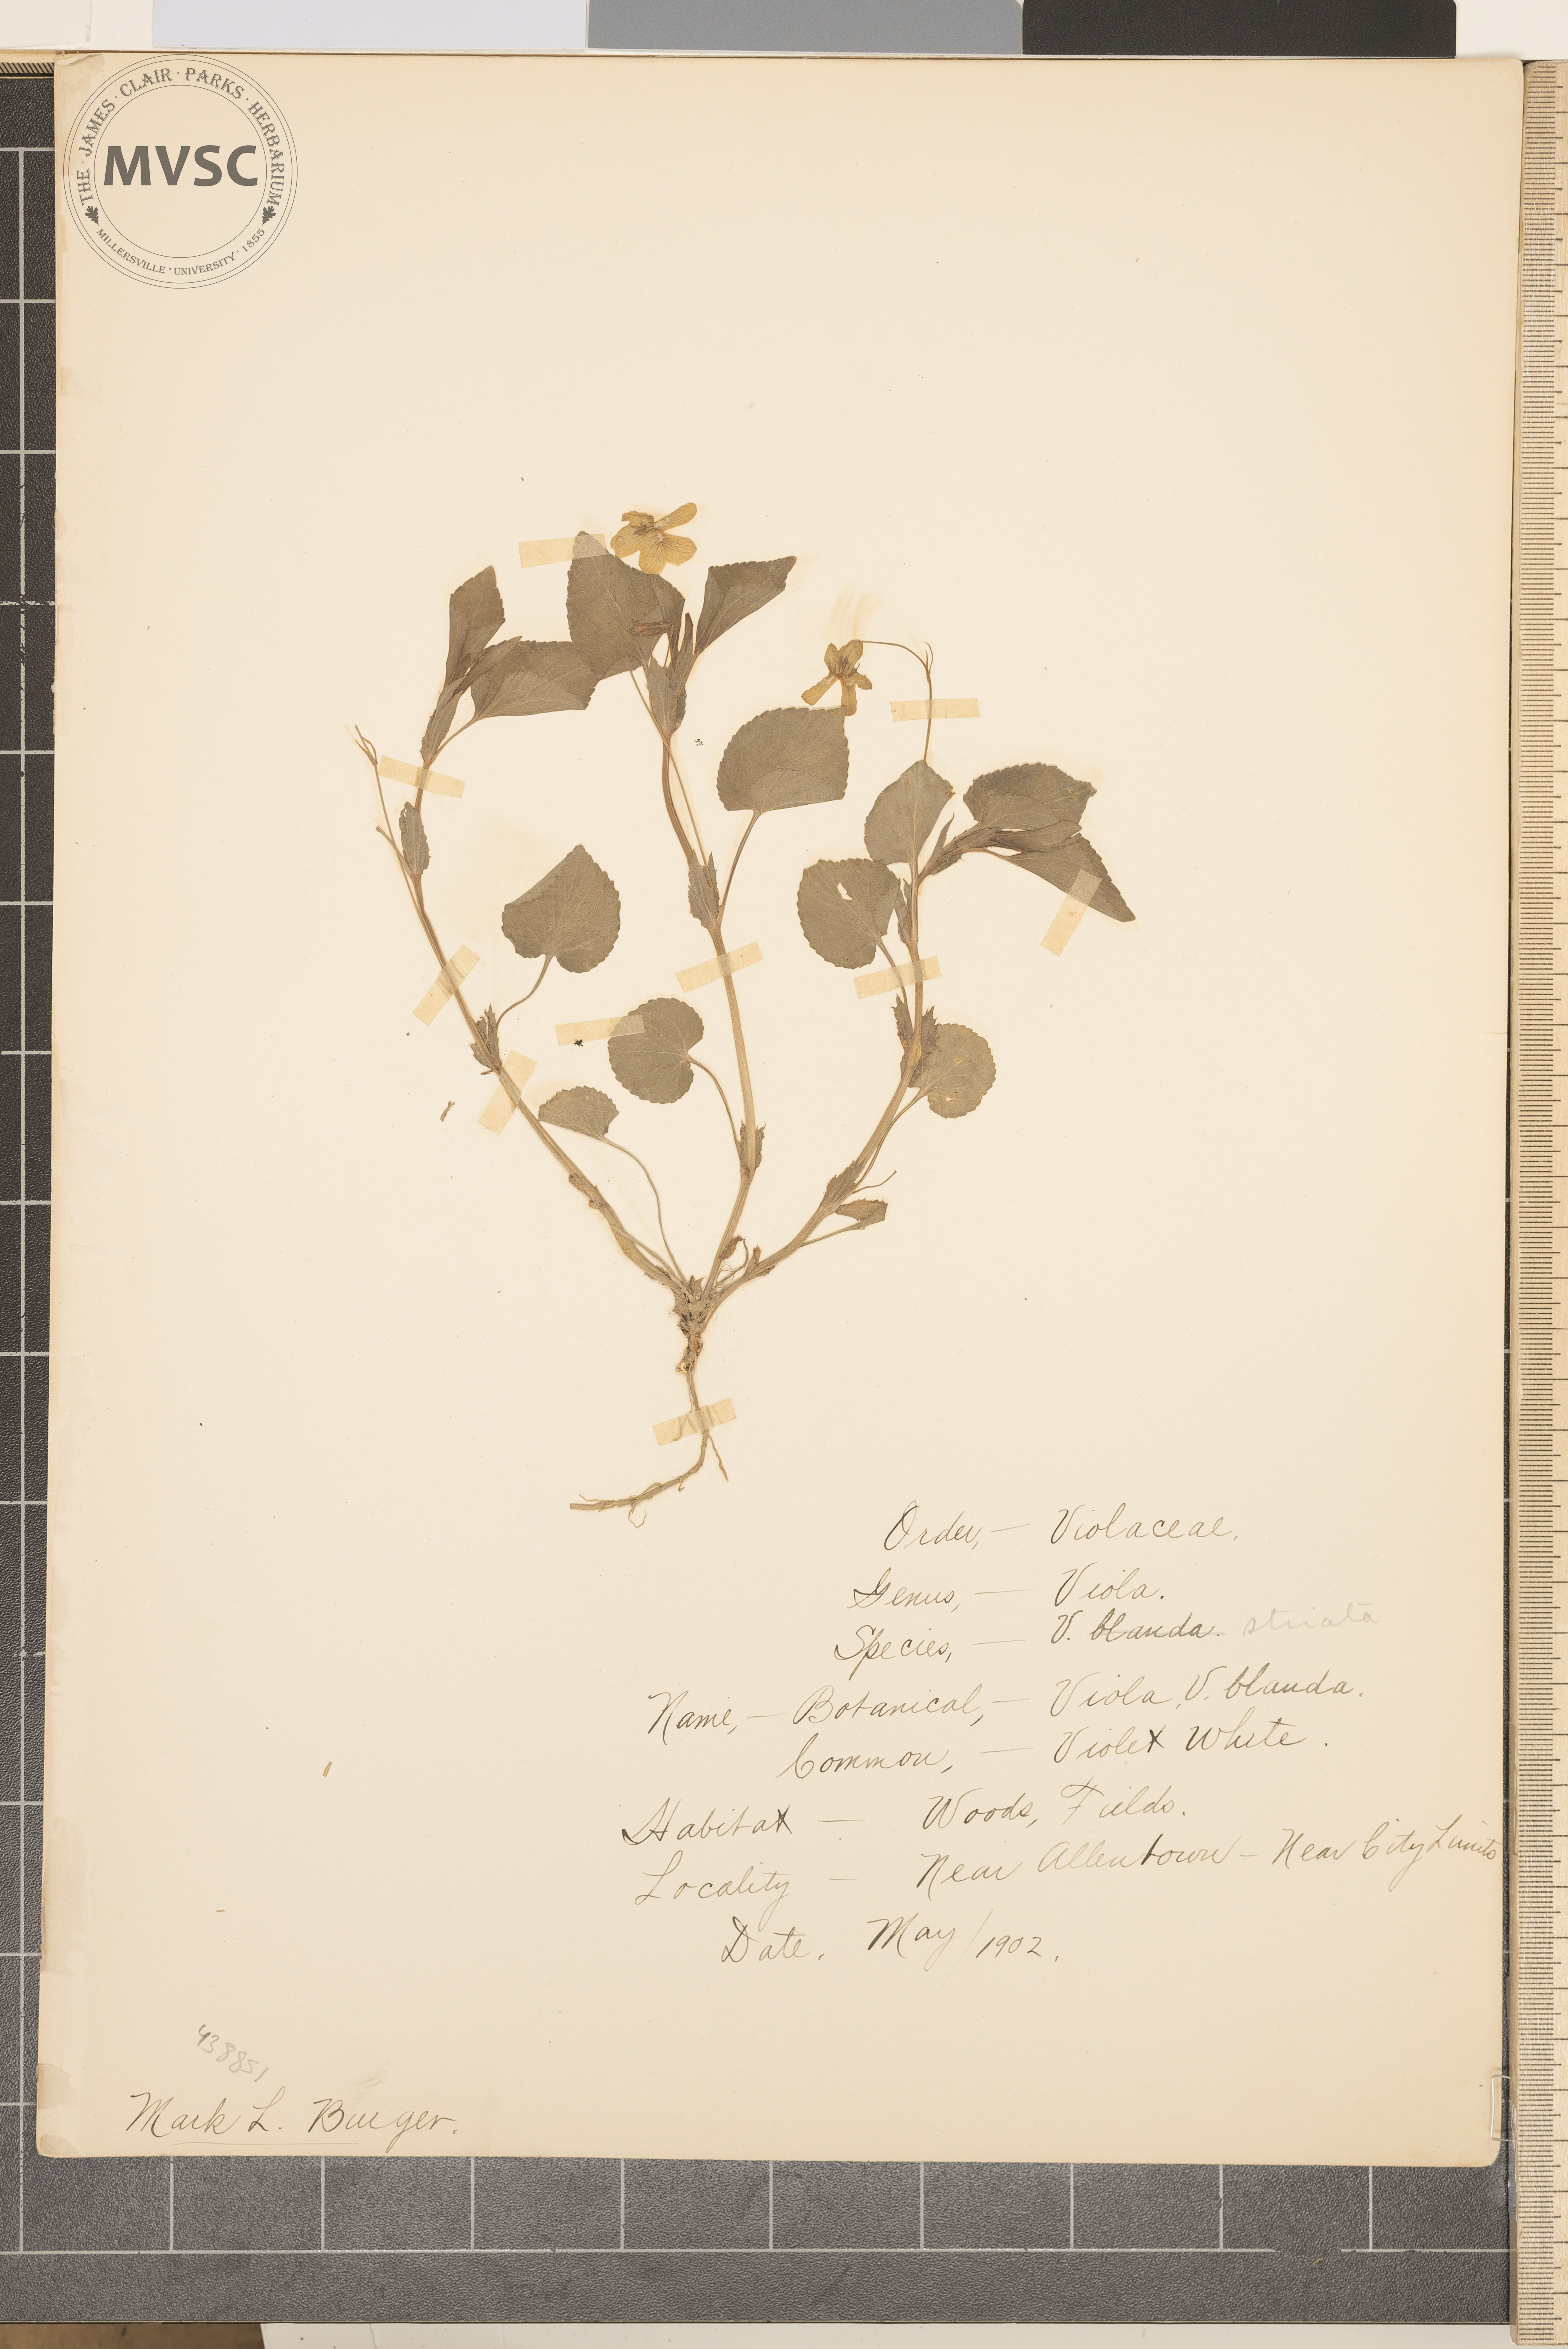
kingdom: Plantae
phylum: Tracheophyta
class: Magnoliopsida
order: Malpighiales
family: Violaceae
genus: Viola
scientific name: Viola striata
